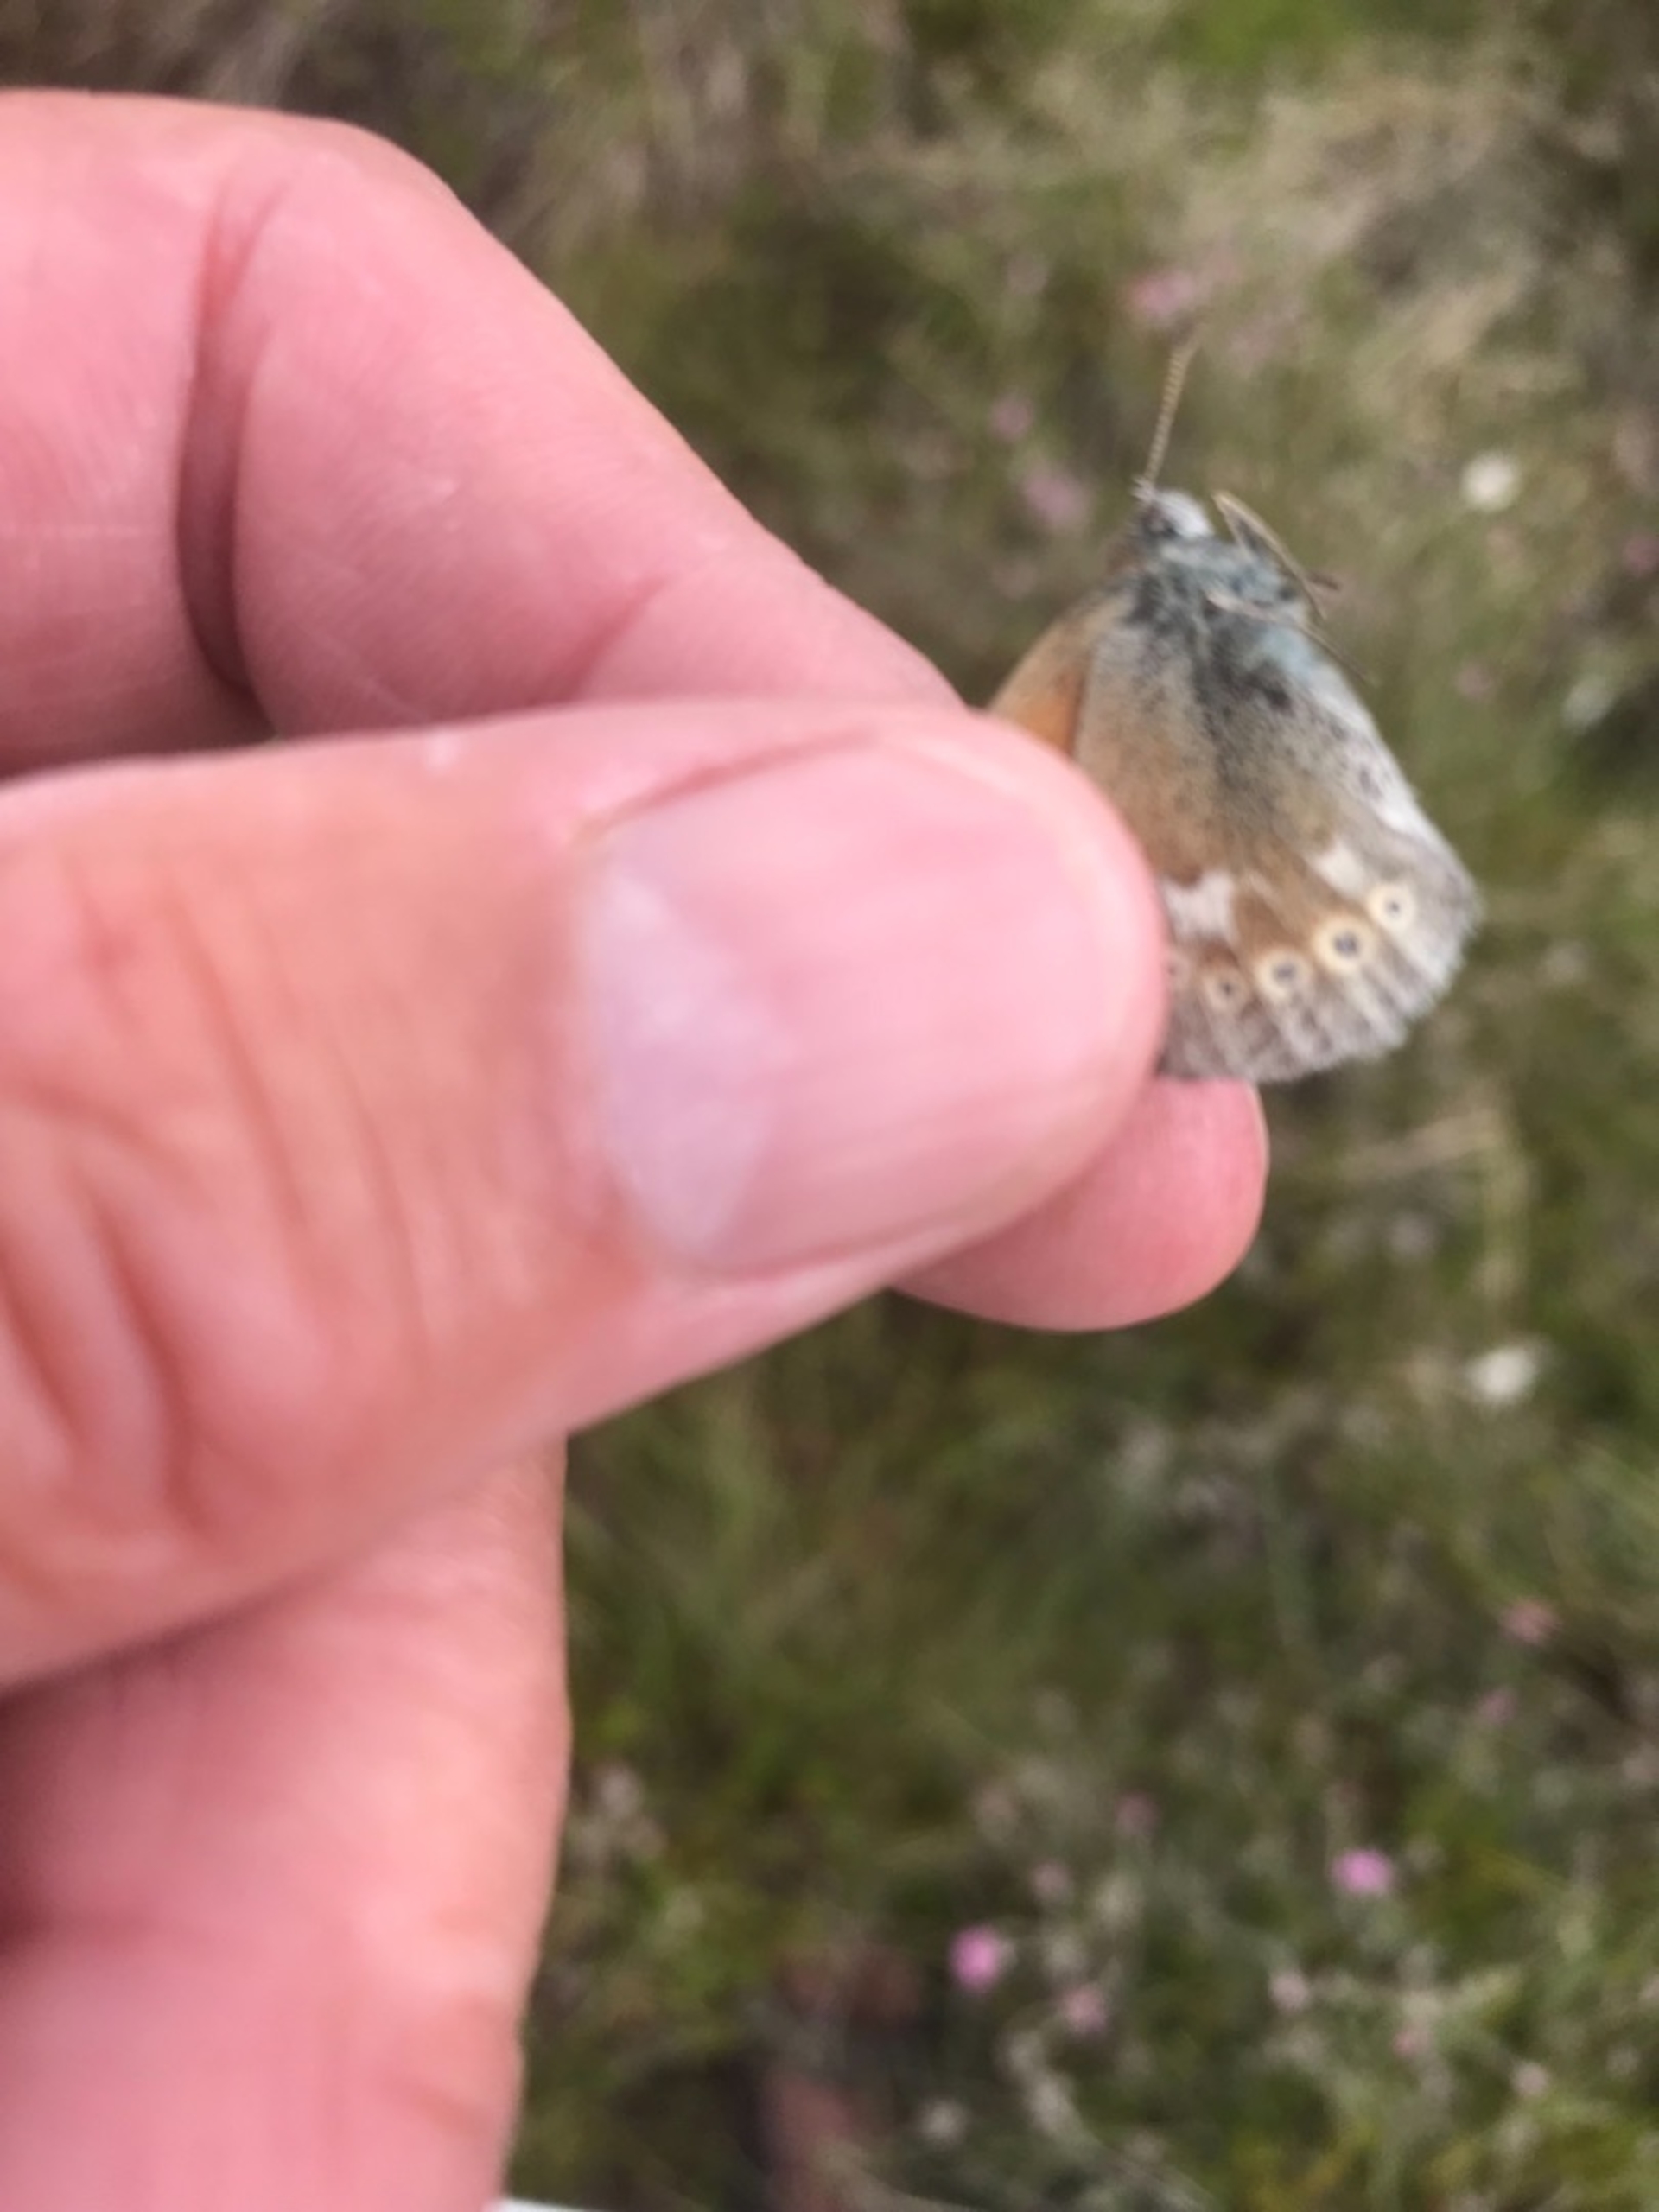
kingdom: Animalia
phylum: Arthropoda
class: Insecta
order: Lepidoptera
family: Nymphalidae
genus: Coenonympha
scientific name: Coenonympha tullia
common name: Moserandøje
